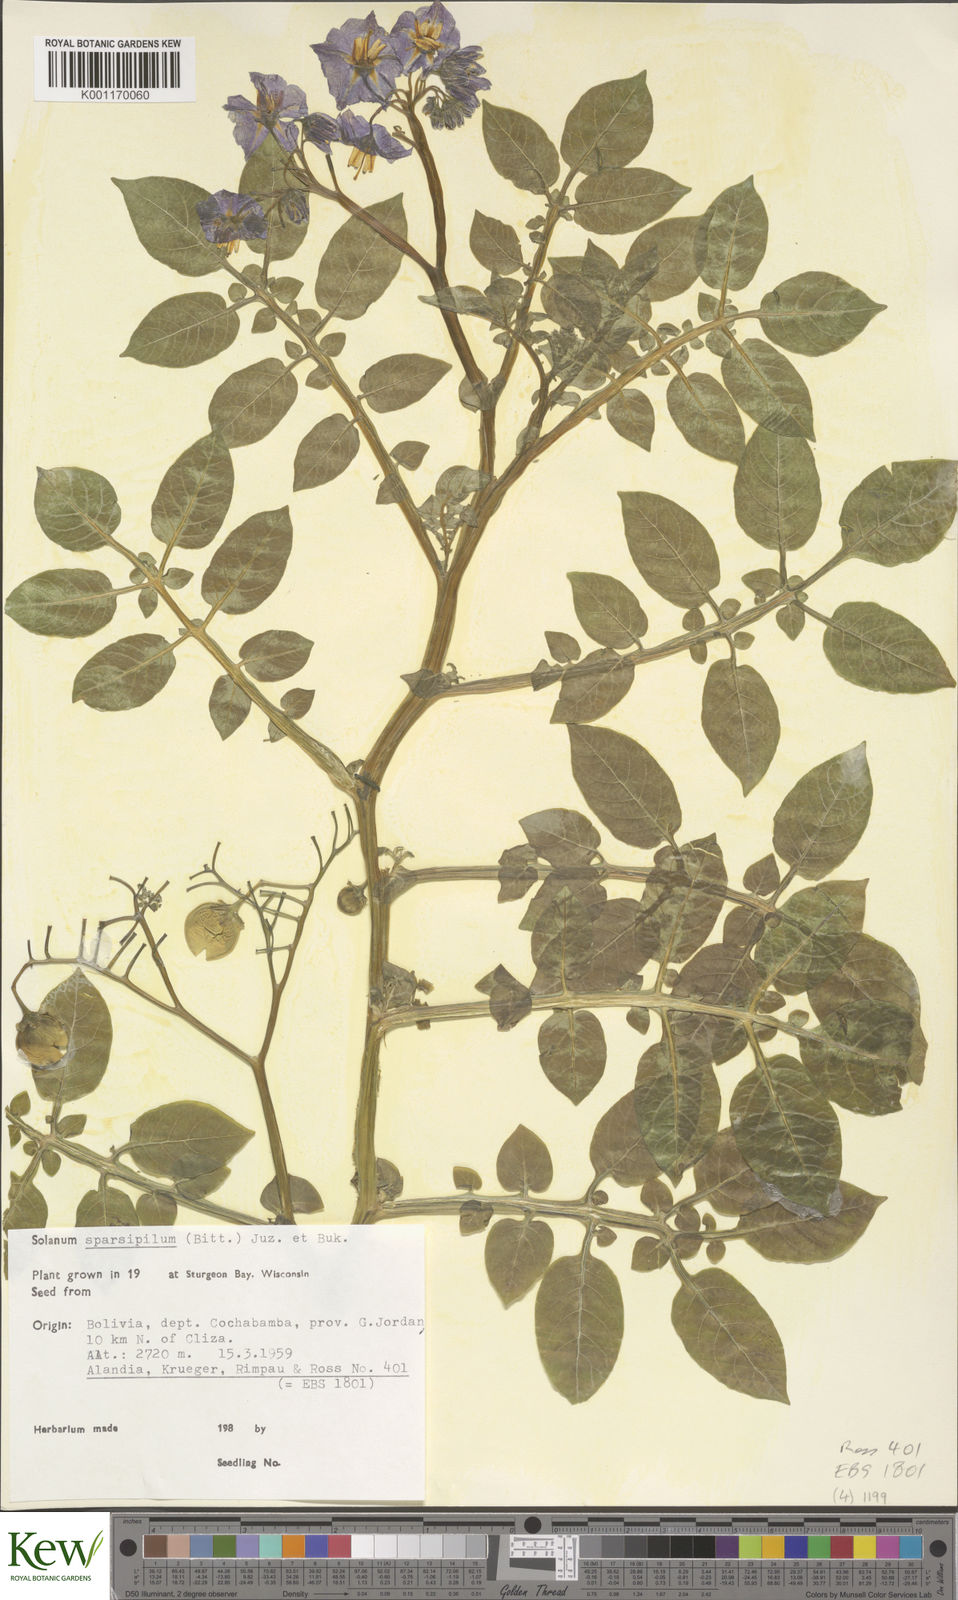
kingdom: Plantae
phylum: Tracheophyta
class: Magnoliopsida
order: Solanales
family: Solanaceae
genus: Solanum
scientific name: Solanum brevicaule
